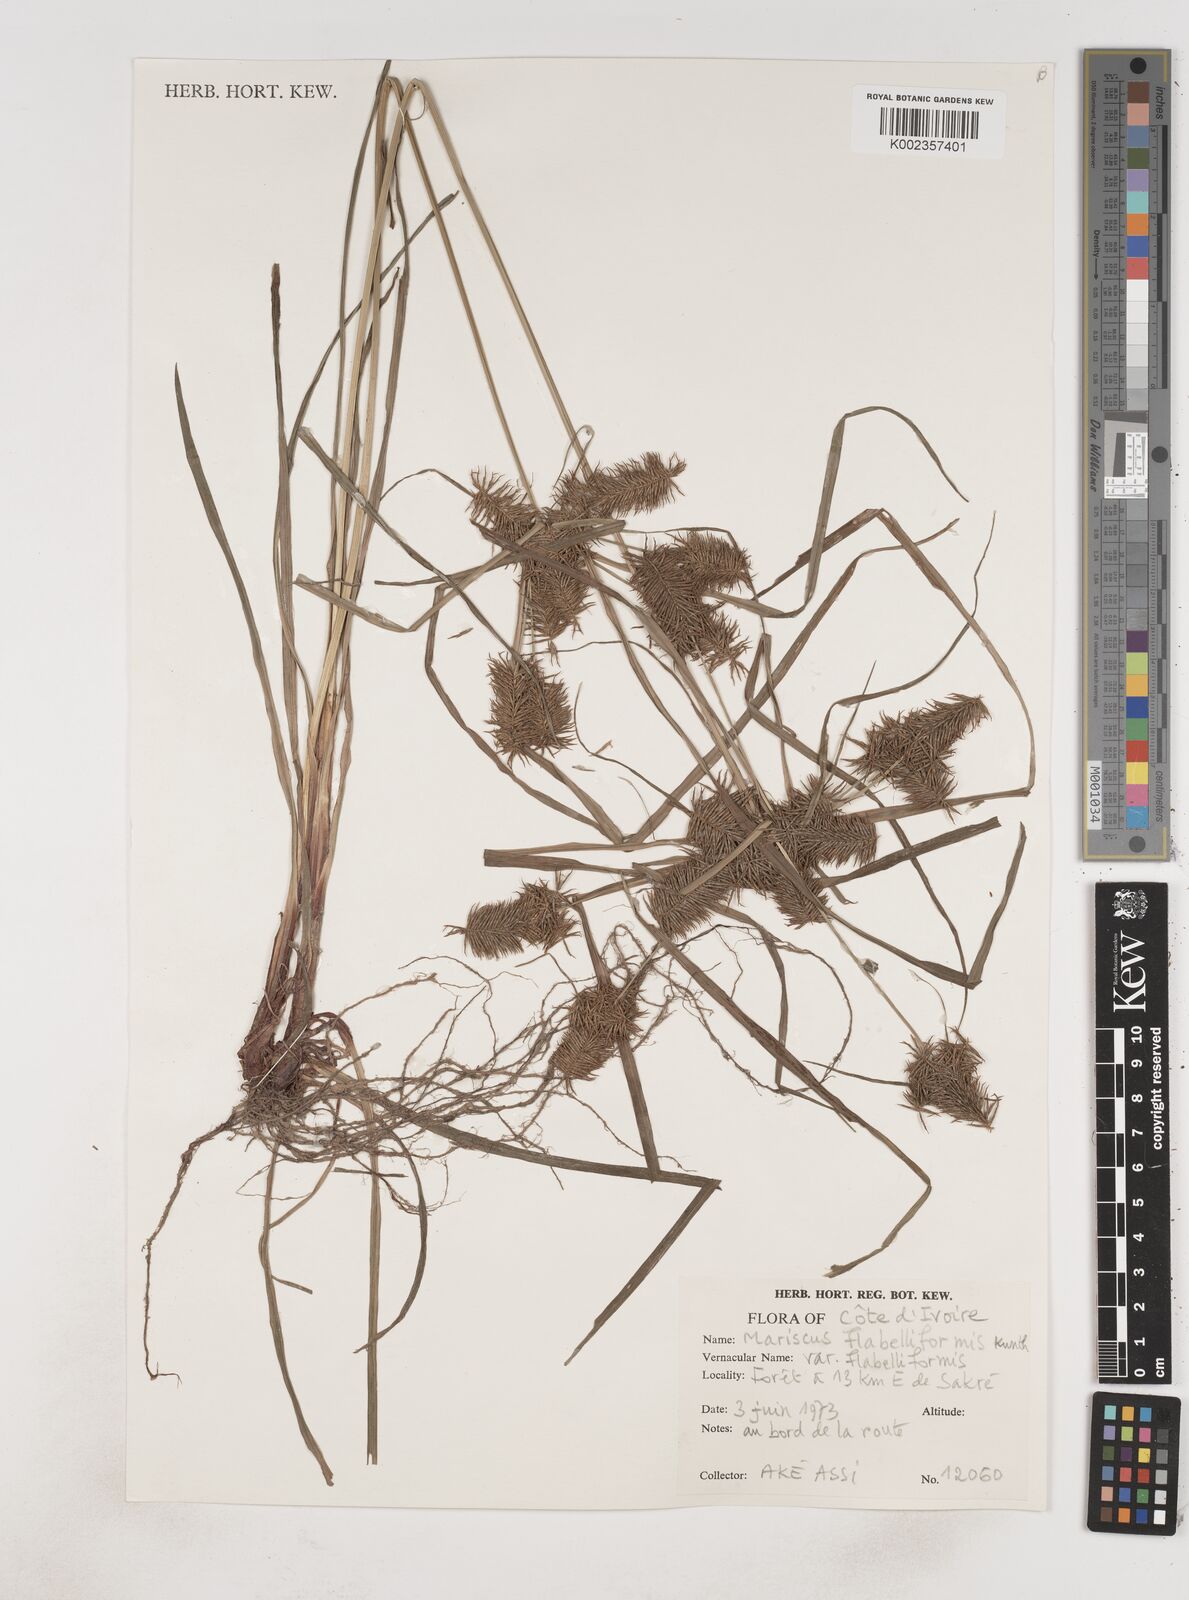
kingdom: Plantae
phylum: Tracheophyta
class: Liliopsida
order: Poales
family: Cyperaceae
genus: Cyperus
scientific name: Cyperus tenuis
